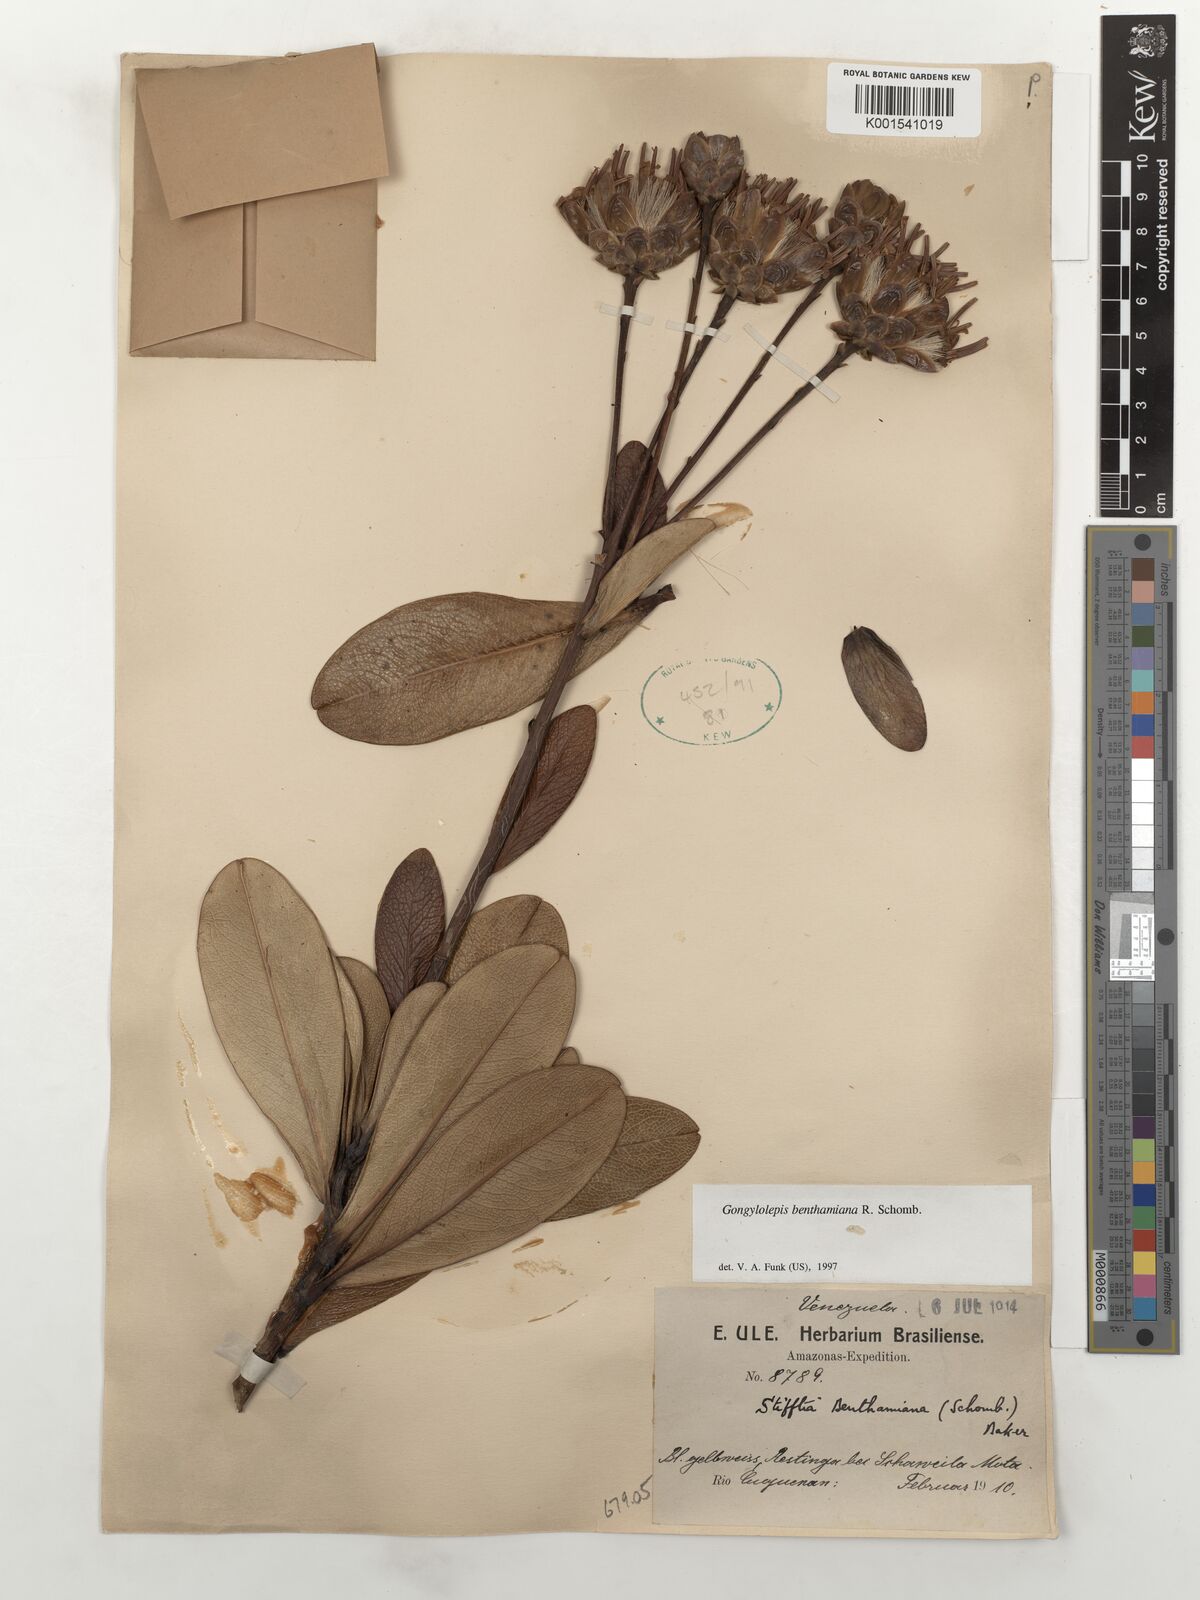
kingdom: Plantae
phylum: Tracheophyta
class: Magnoliopsida
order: Asterales
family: Asteraceae
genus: Gongylolepis
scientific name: Gongylolepis benthamiana
